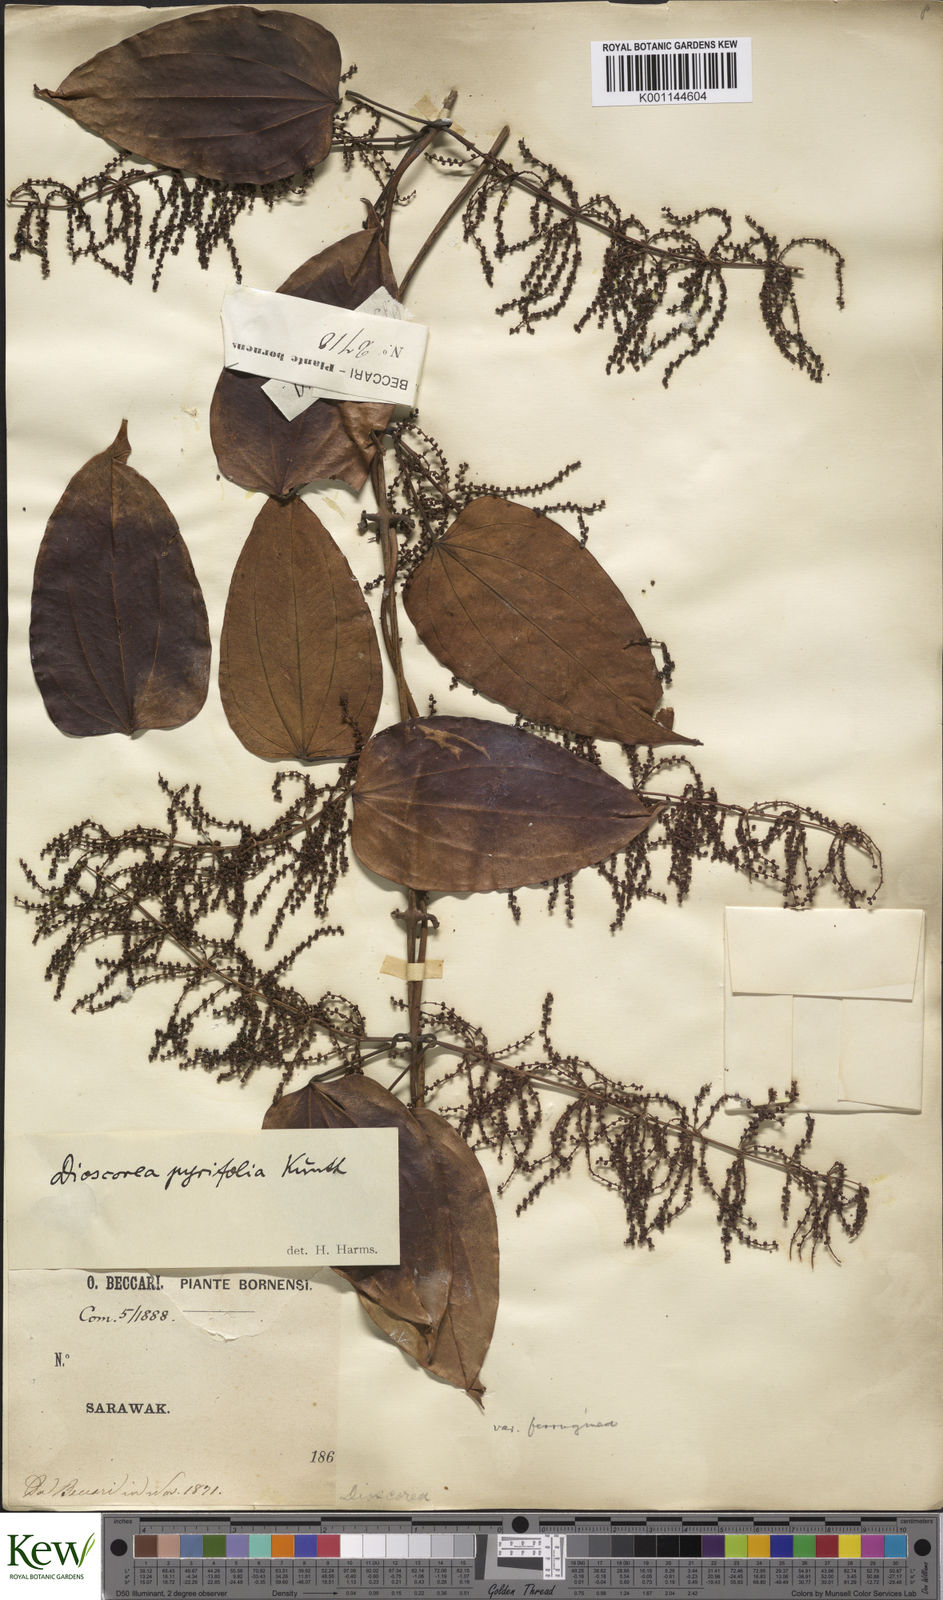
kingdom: Plantae
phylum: Tracheophyta
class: Liliopsida
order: Dioscoreales
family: Dioscoreaceae
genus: Dioscorea
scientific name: Dioscorea pyrifolia
